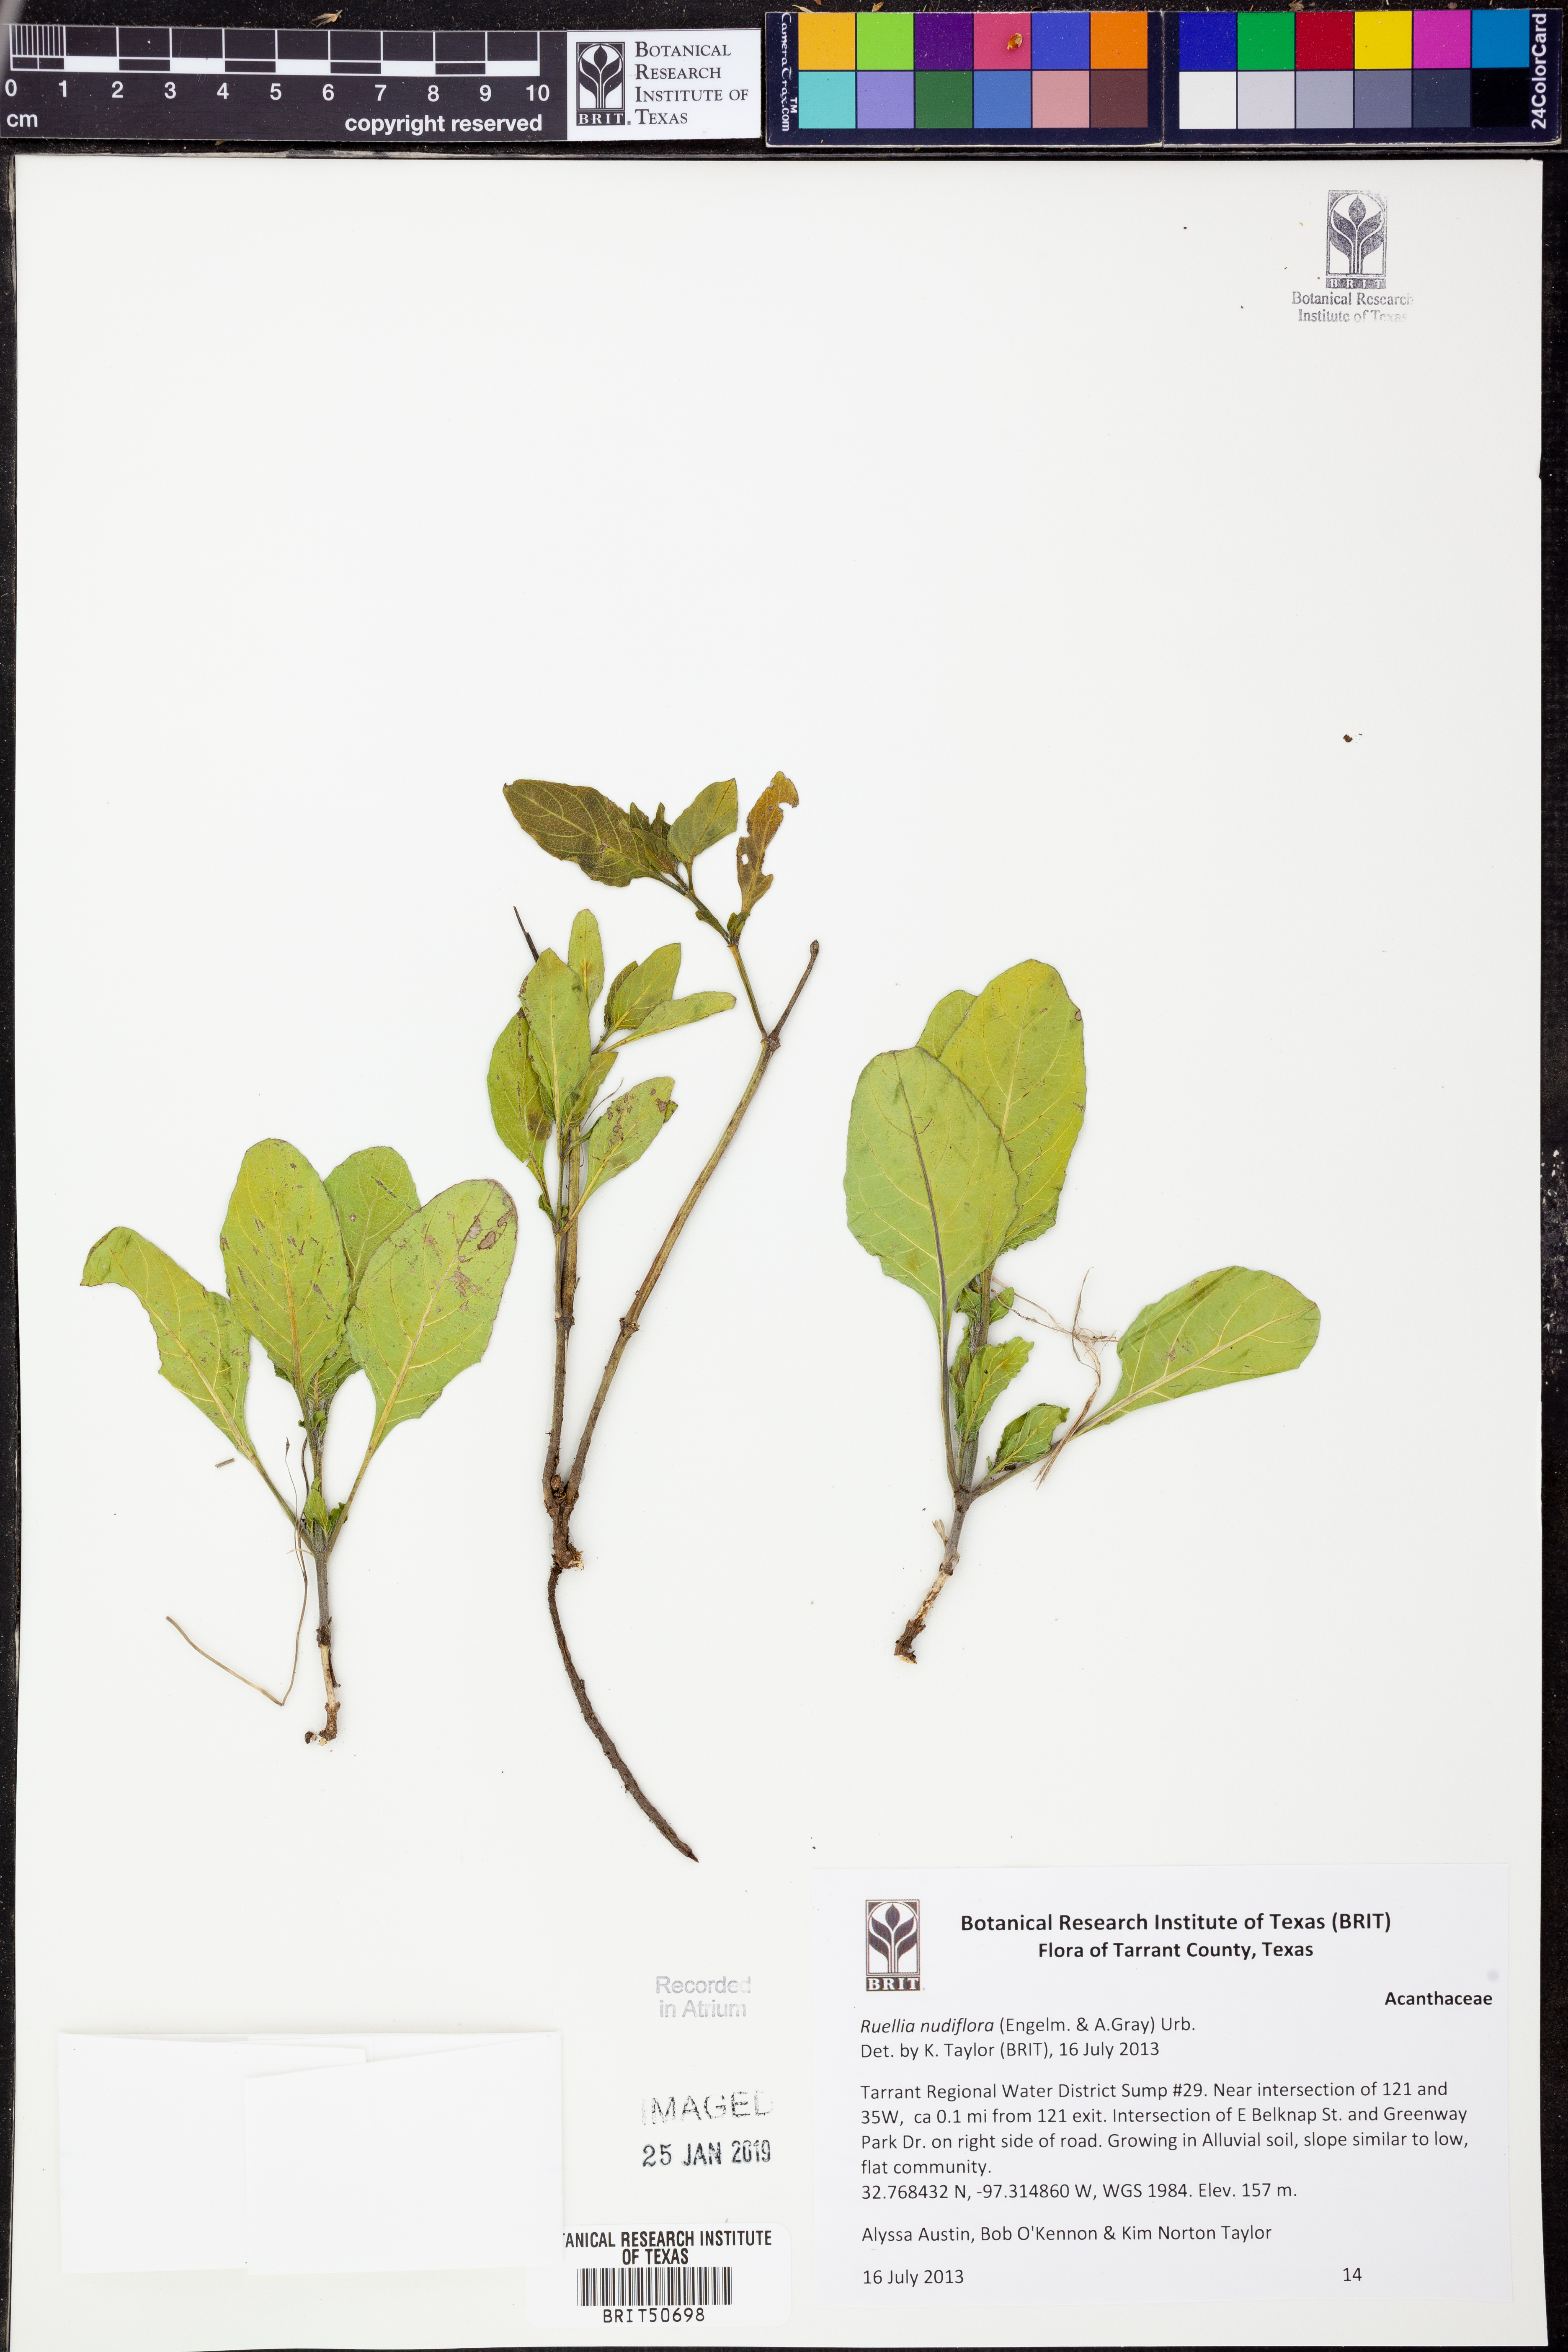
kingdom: Plantae
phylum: Tracheophyta
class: Magnoliopsida
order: Lamiales
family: Acanthaceae
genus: Ruellia
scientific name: Ruellia ciliatiflora
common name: Hairyflower wild petunia
